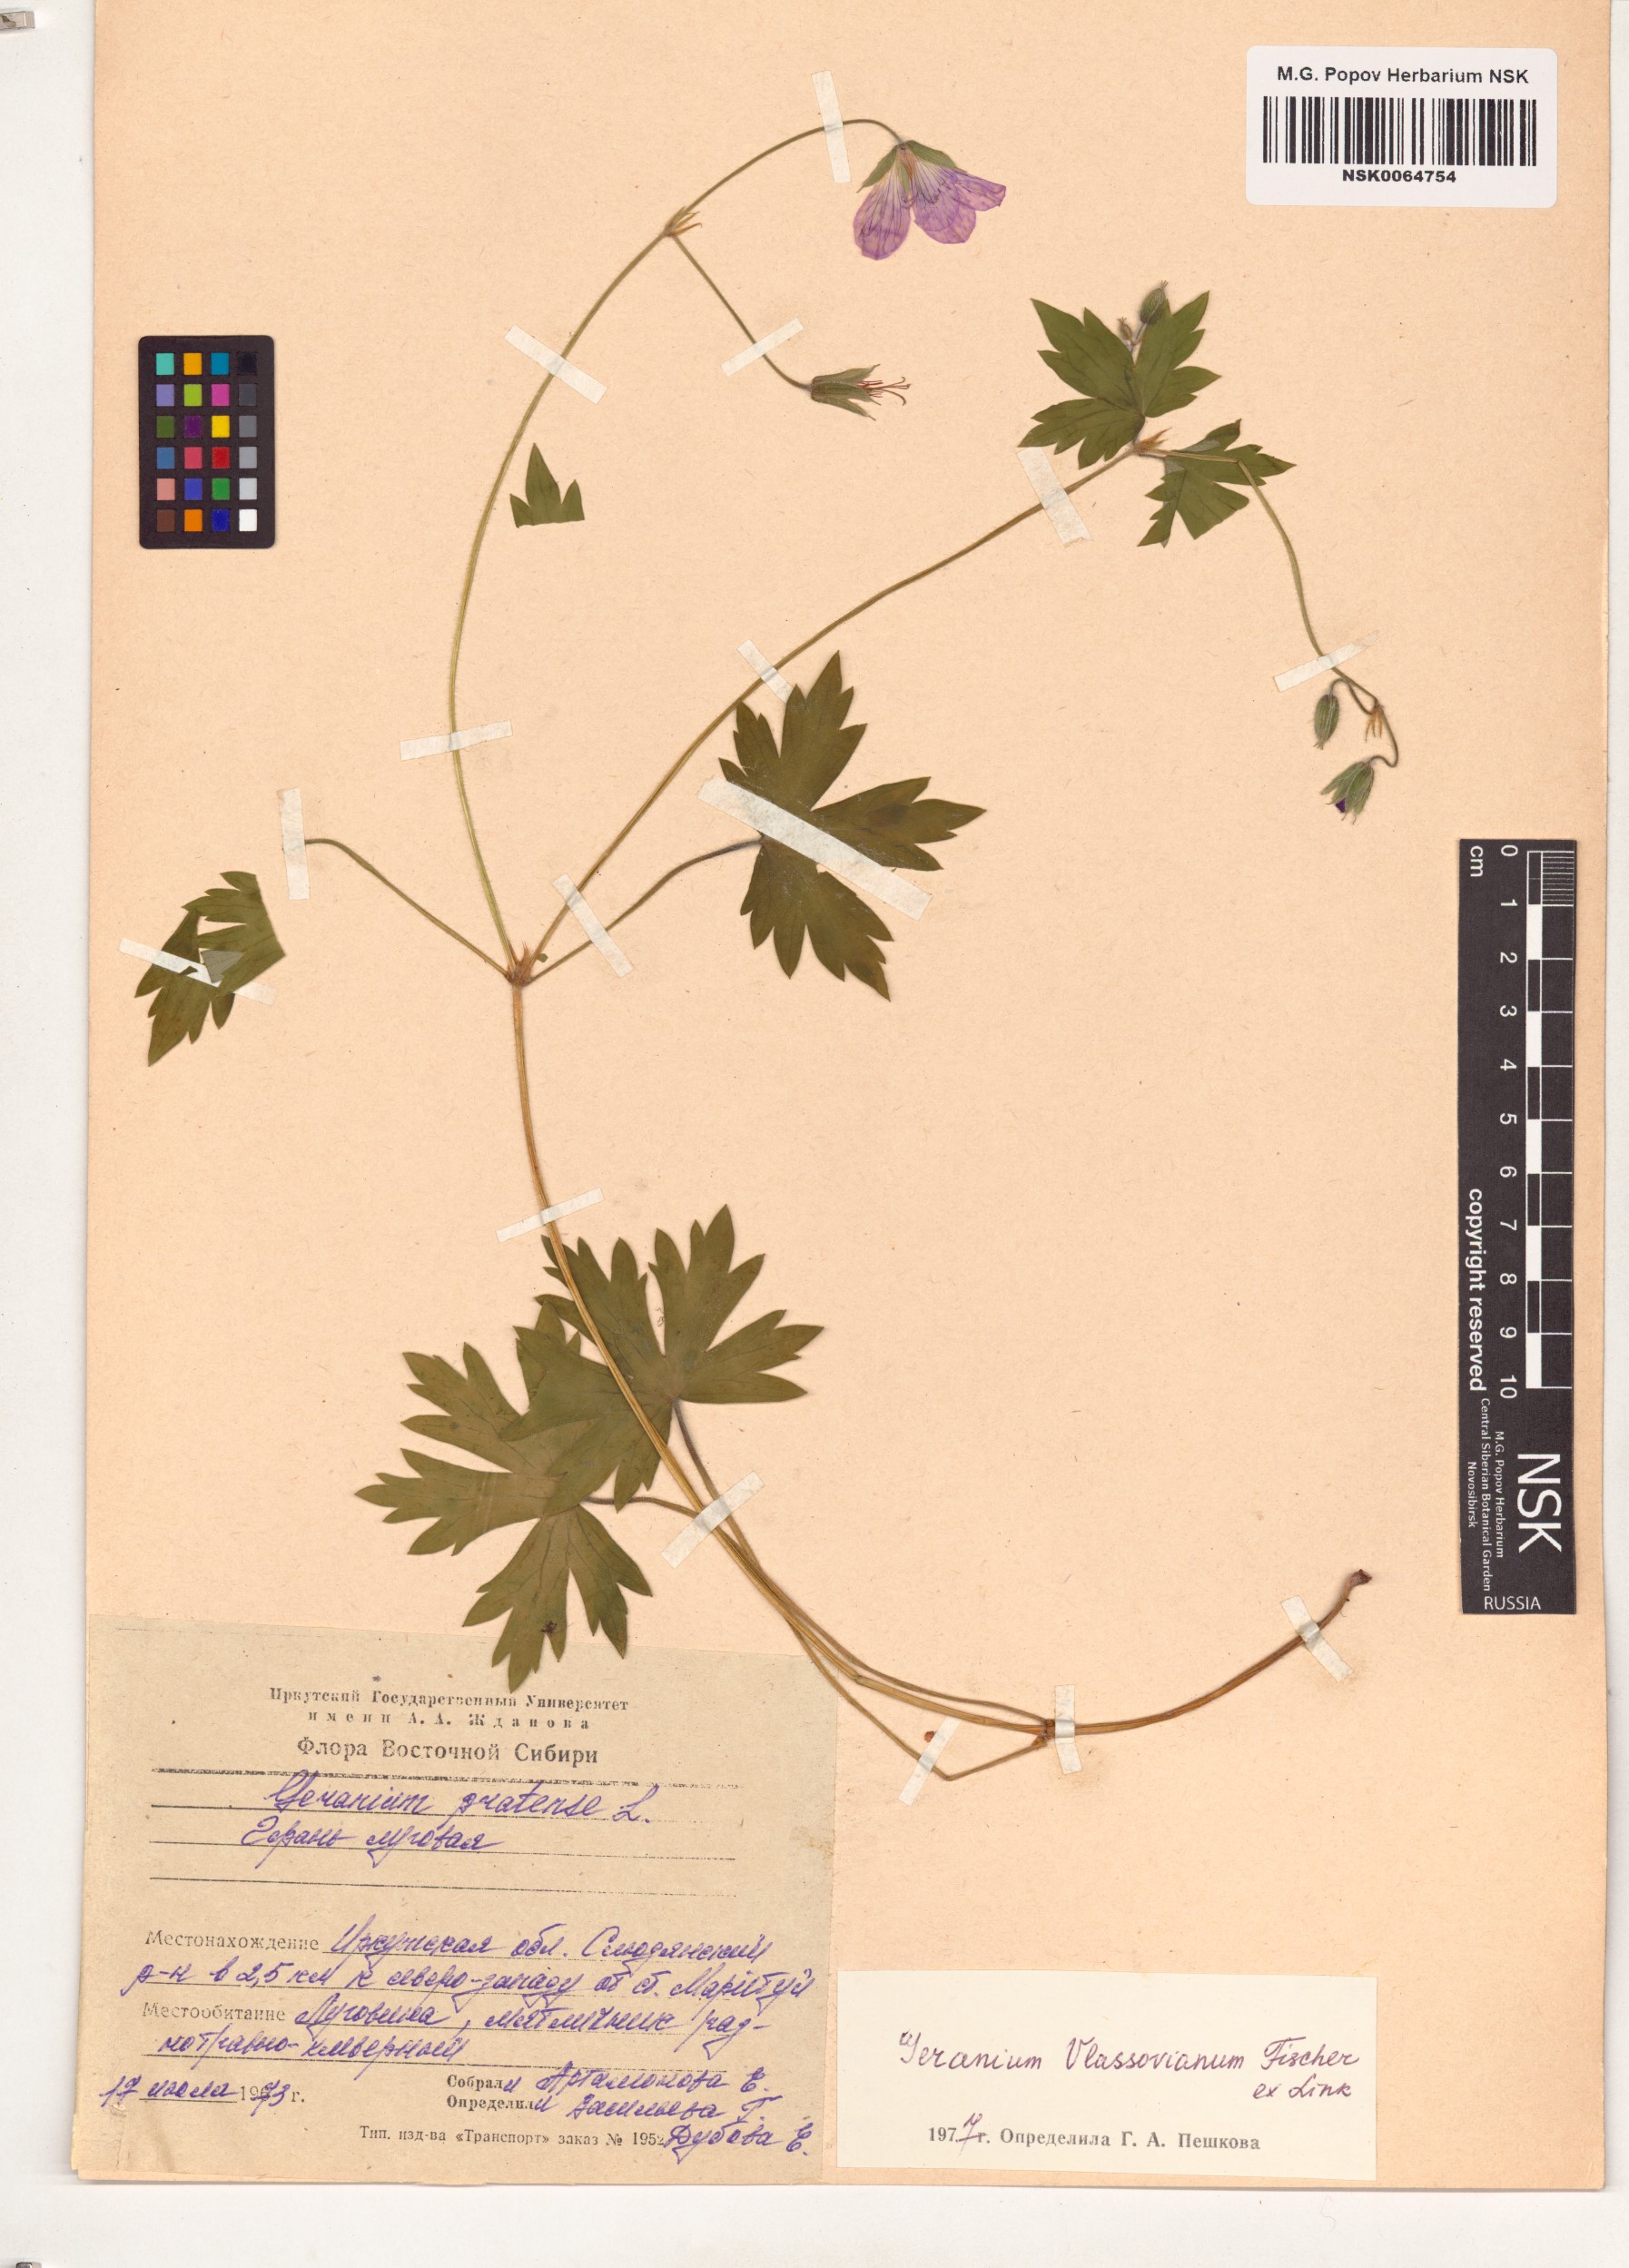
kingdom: Plantae
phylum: Tracheophyta
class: Magnoliopsida
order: Geraniales
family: Geraniaceae
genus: Geranium
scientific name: Geranium wlassovianum
